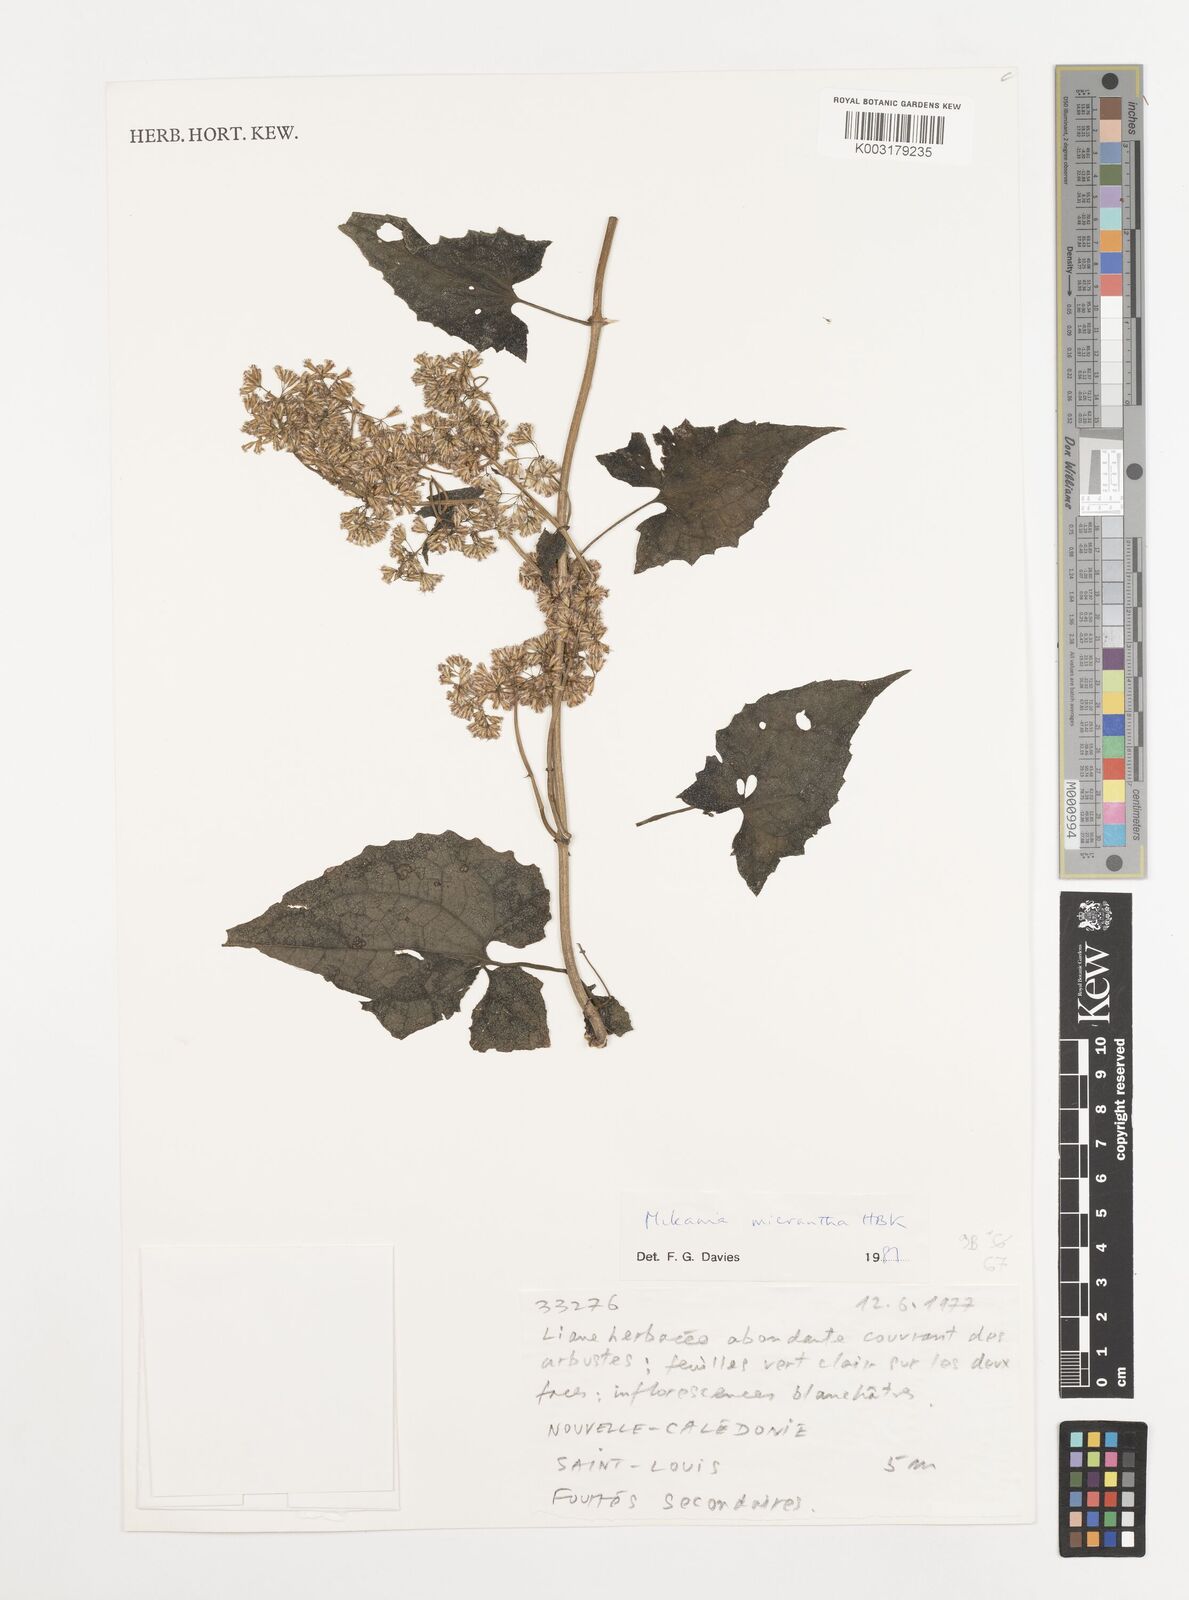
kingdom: Plantae
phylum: Tracheophyta
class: Magnoliopsida
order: Asterales
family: Asteraceae
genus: Mikania
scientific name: Mikania micrantha
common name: Mile-a-minute
